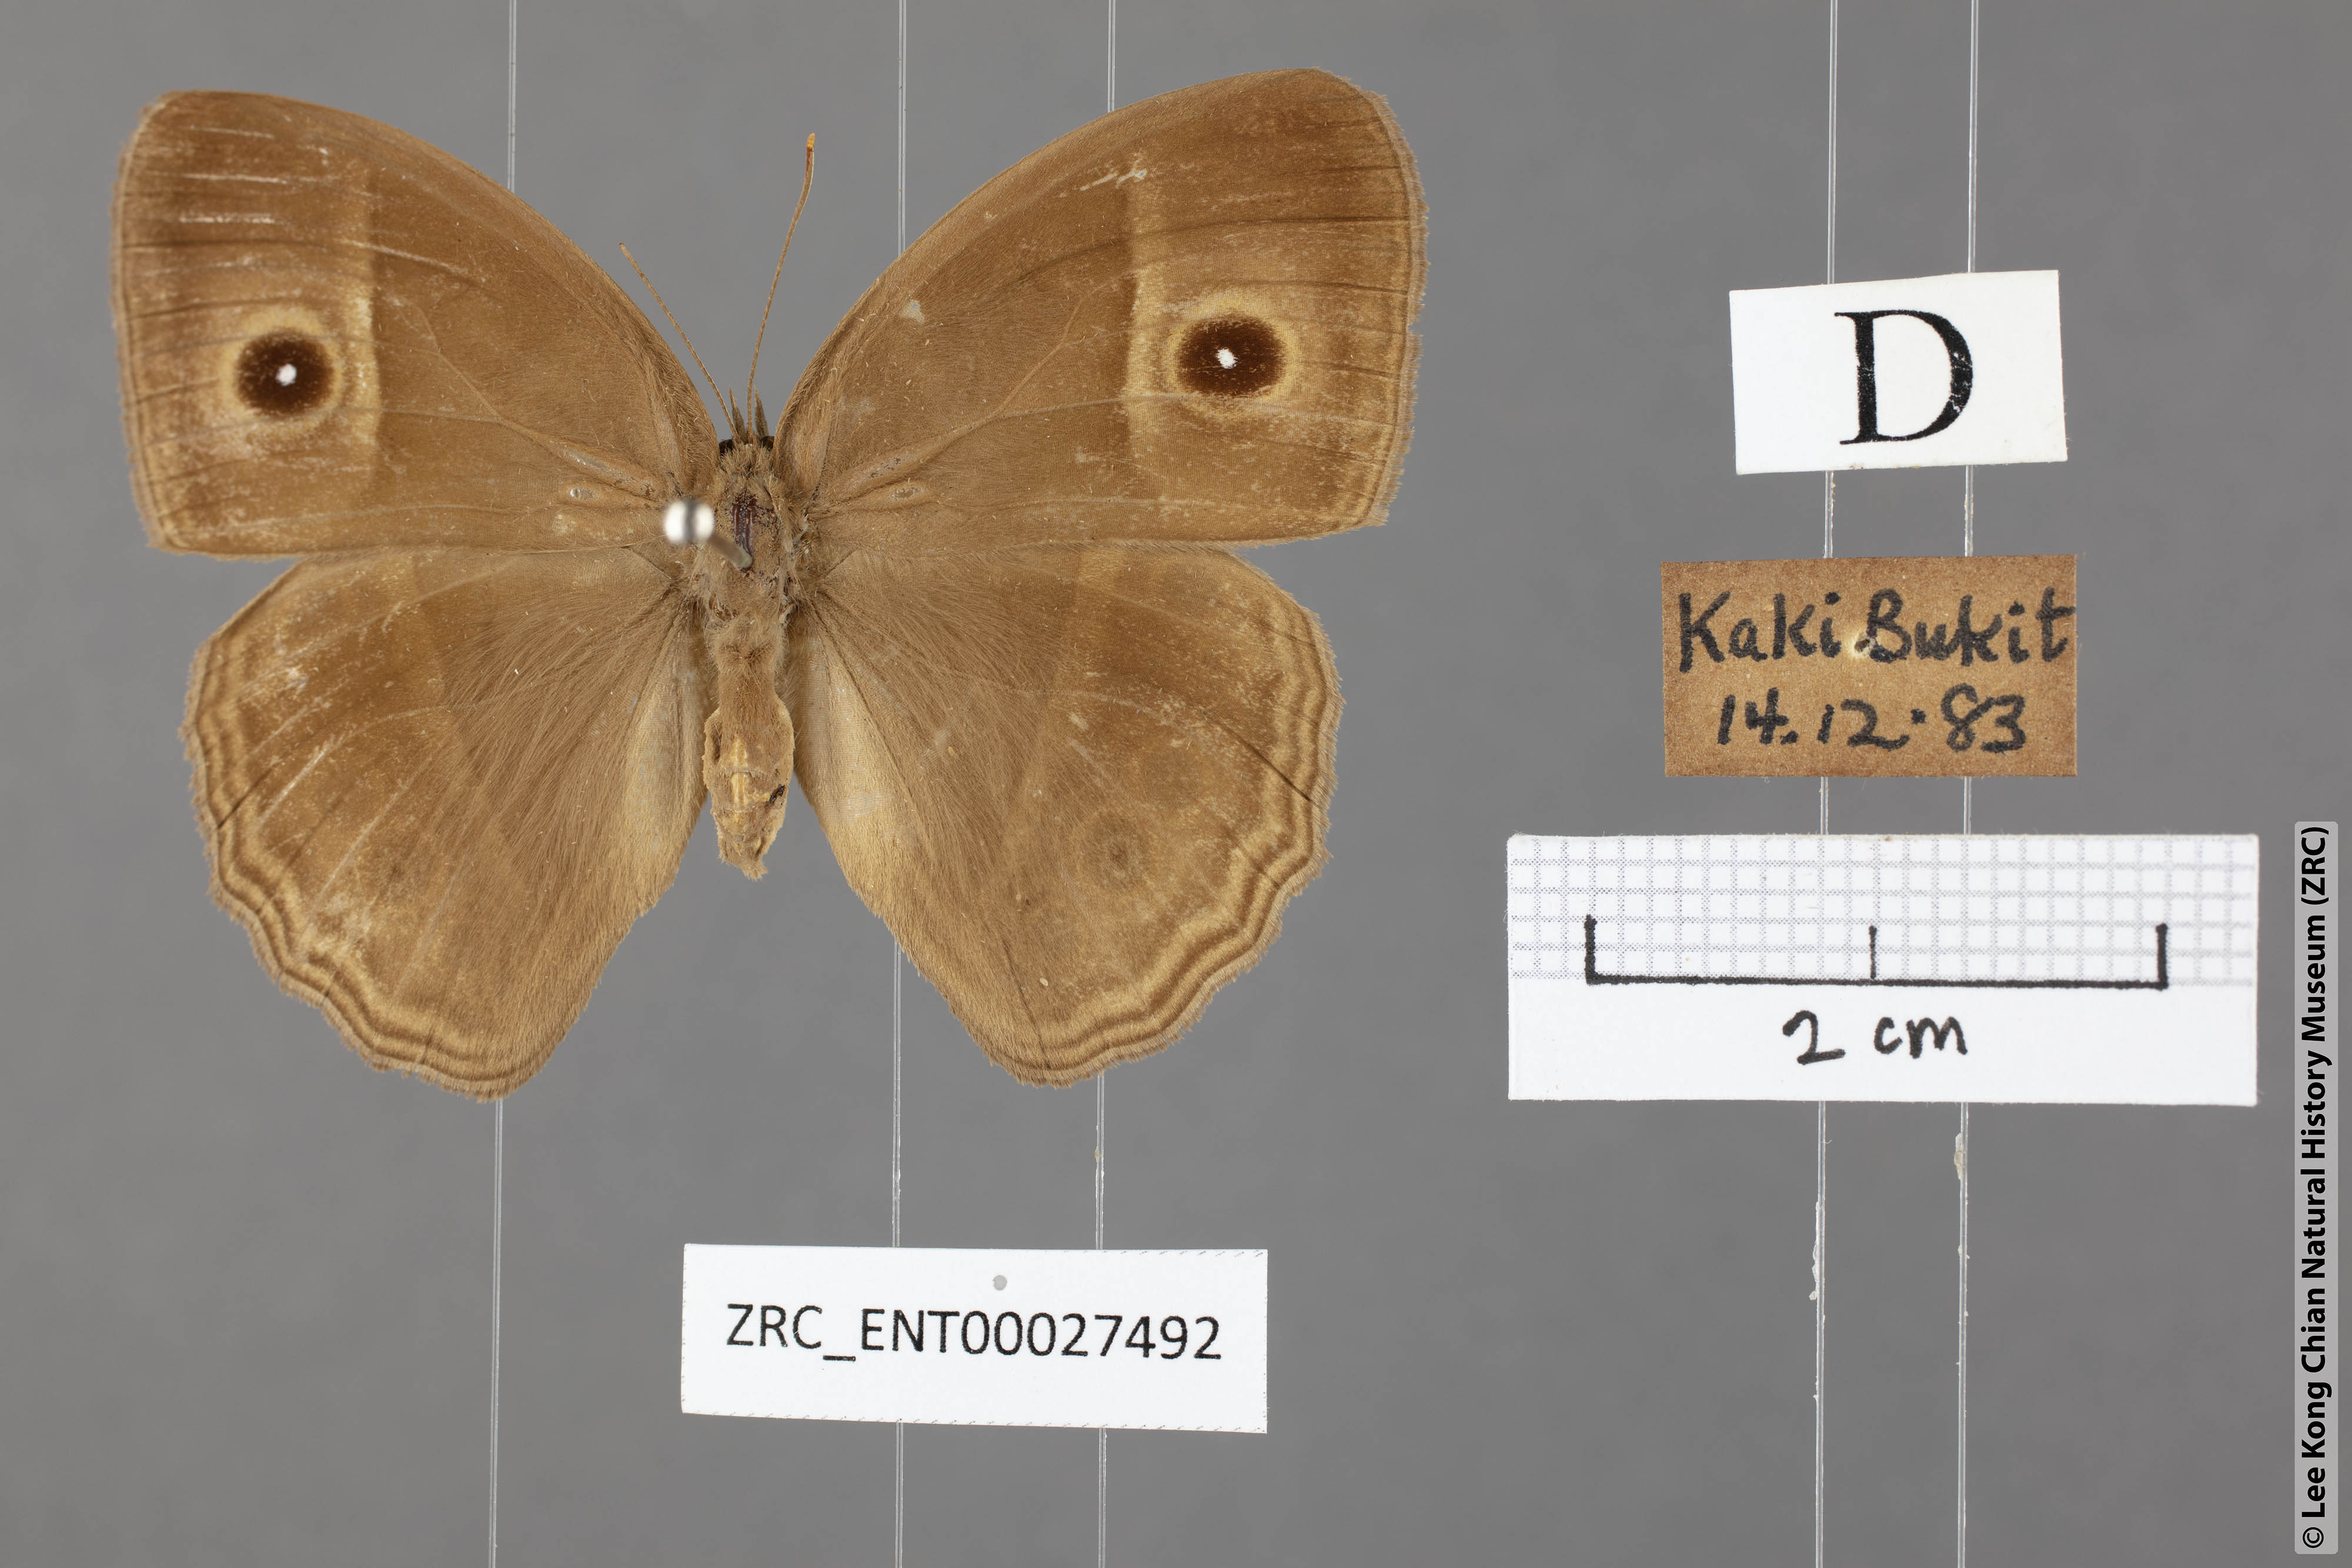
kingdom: Animalia
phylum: Arthropoda
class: Insecta
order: Lepidoptera
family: Nymphalidae
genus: Mycalesis
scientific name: Mycalesis perseoides
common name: Burmese bushbrown
